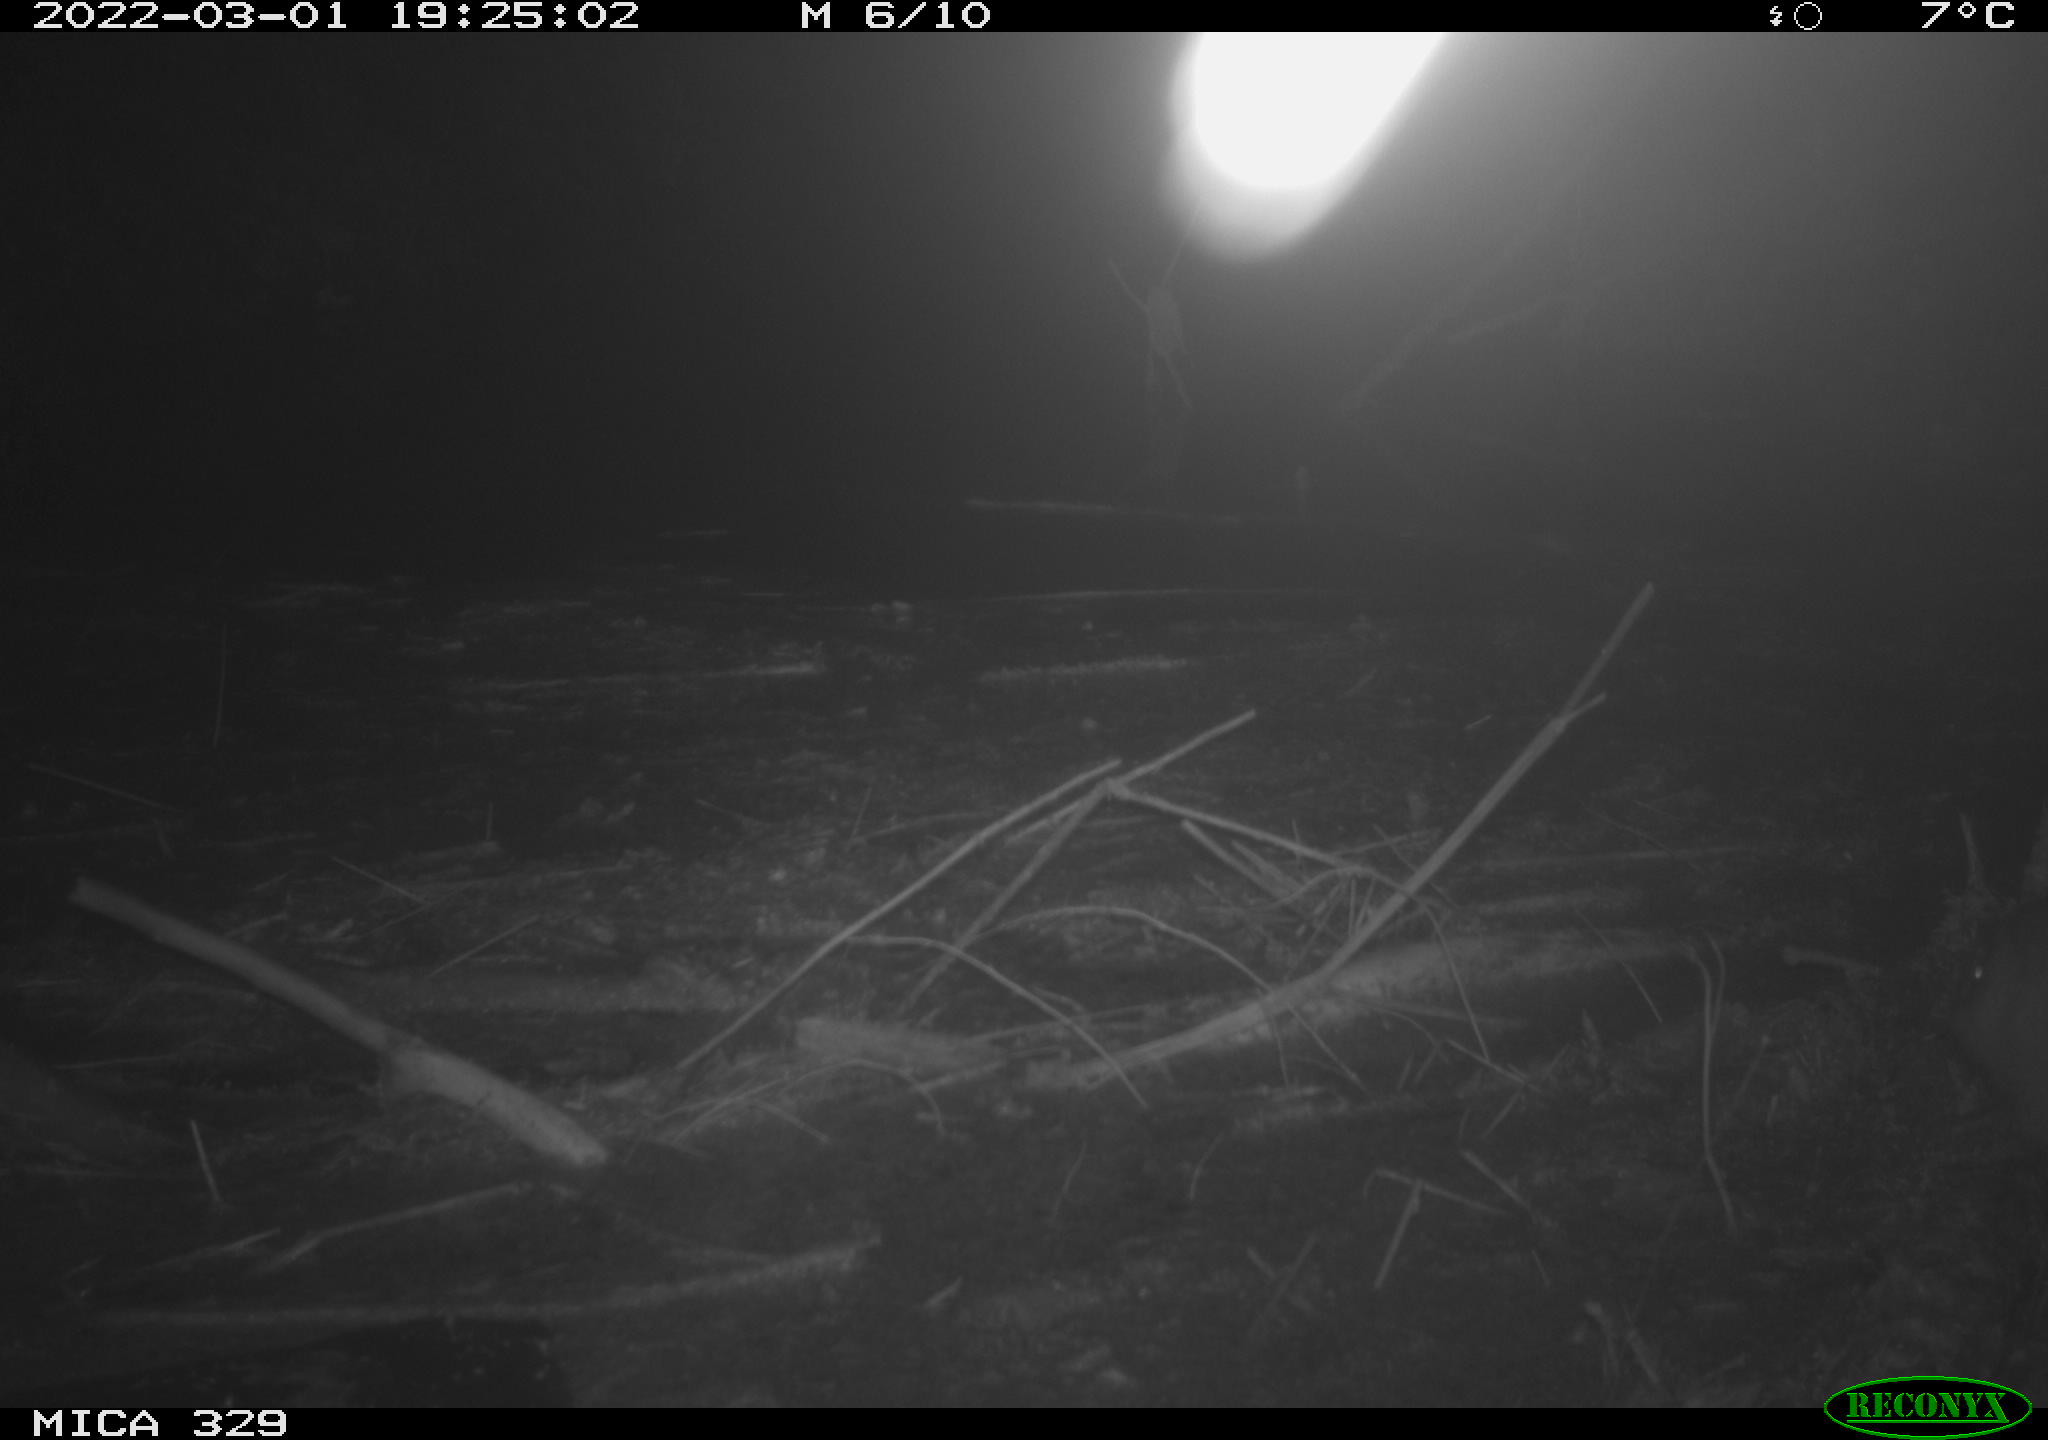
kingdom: Animalia
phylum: Chordata
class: Mammalia
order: Rodentia
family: Castoridae
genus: Castor
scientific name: Castor fiber
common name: Eurasian beaver
